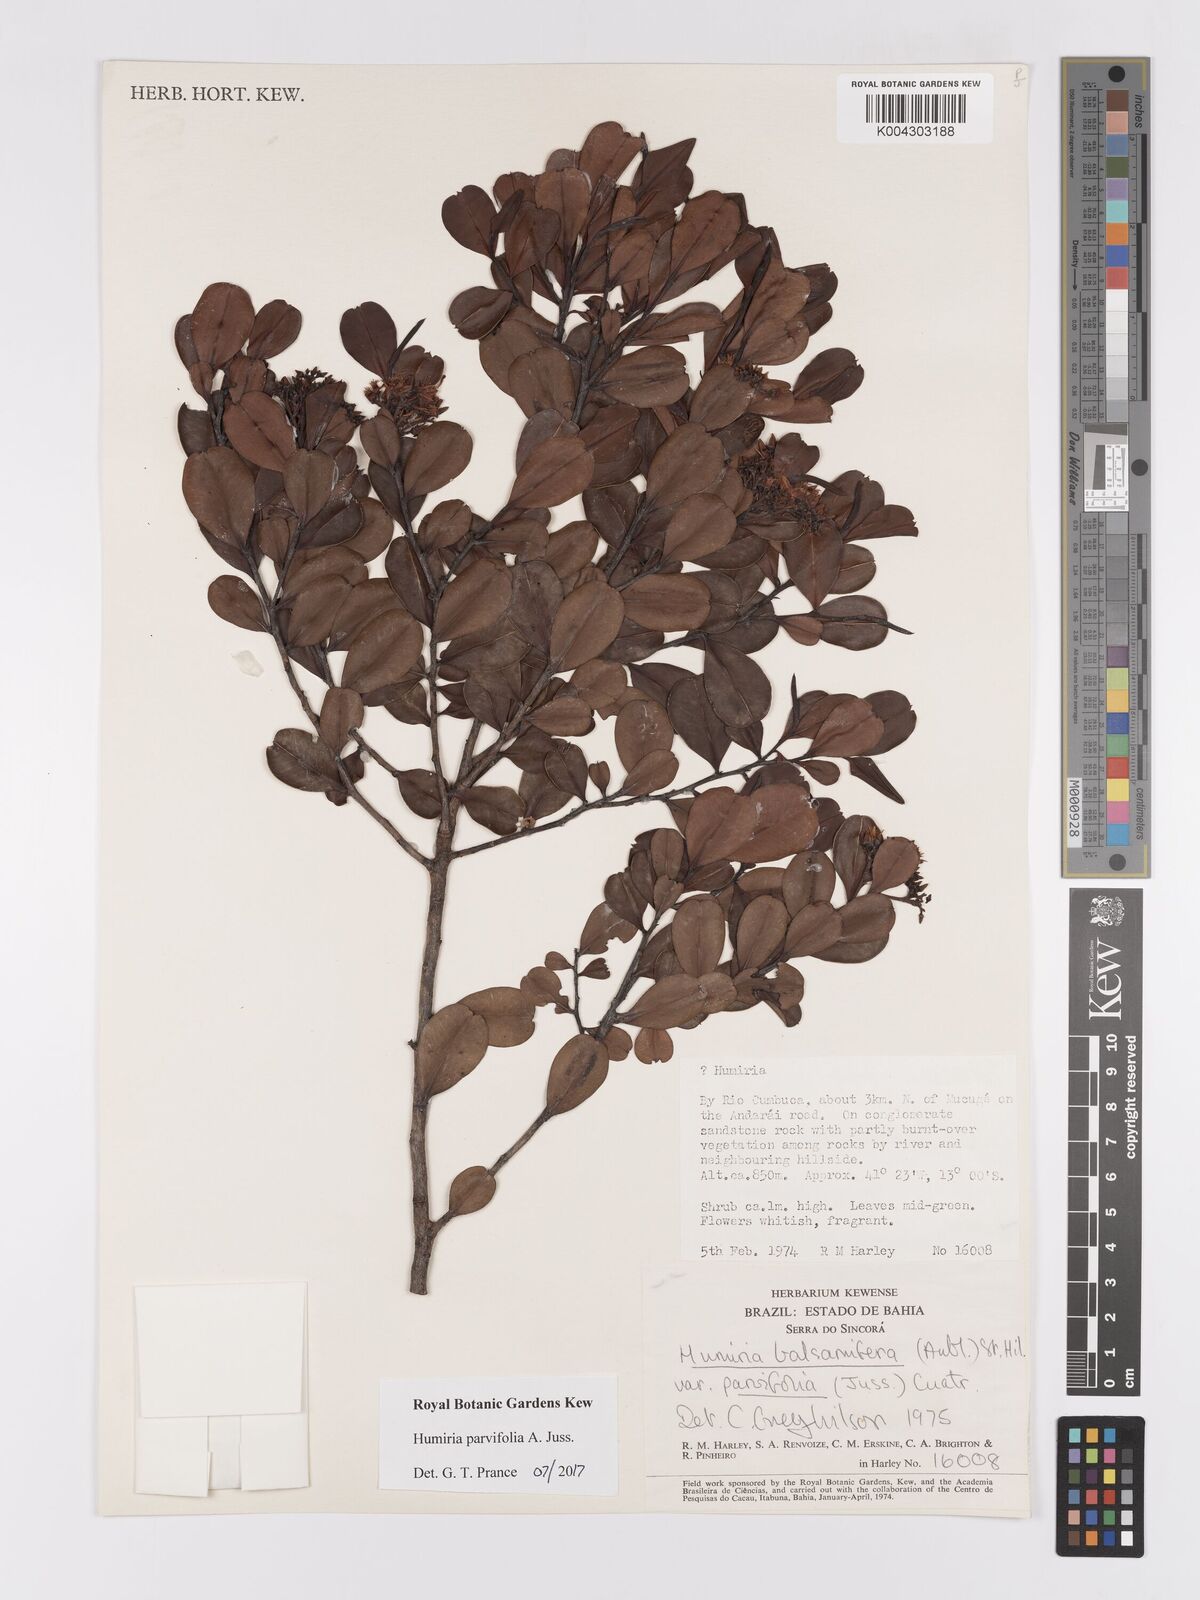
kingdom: Plantae
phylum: Tracheophyta
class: Magnoliopsida
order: Malpighiales
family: Humiriaceae
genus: Humiria
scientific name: Humiria parvifolia
